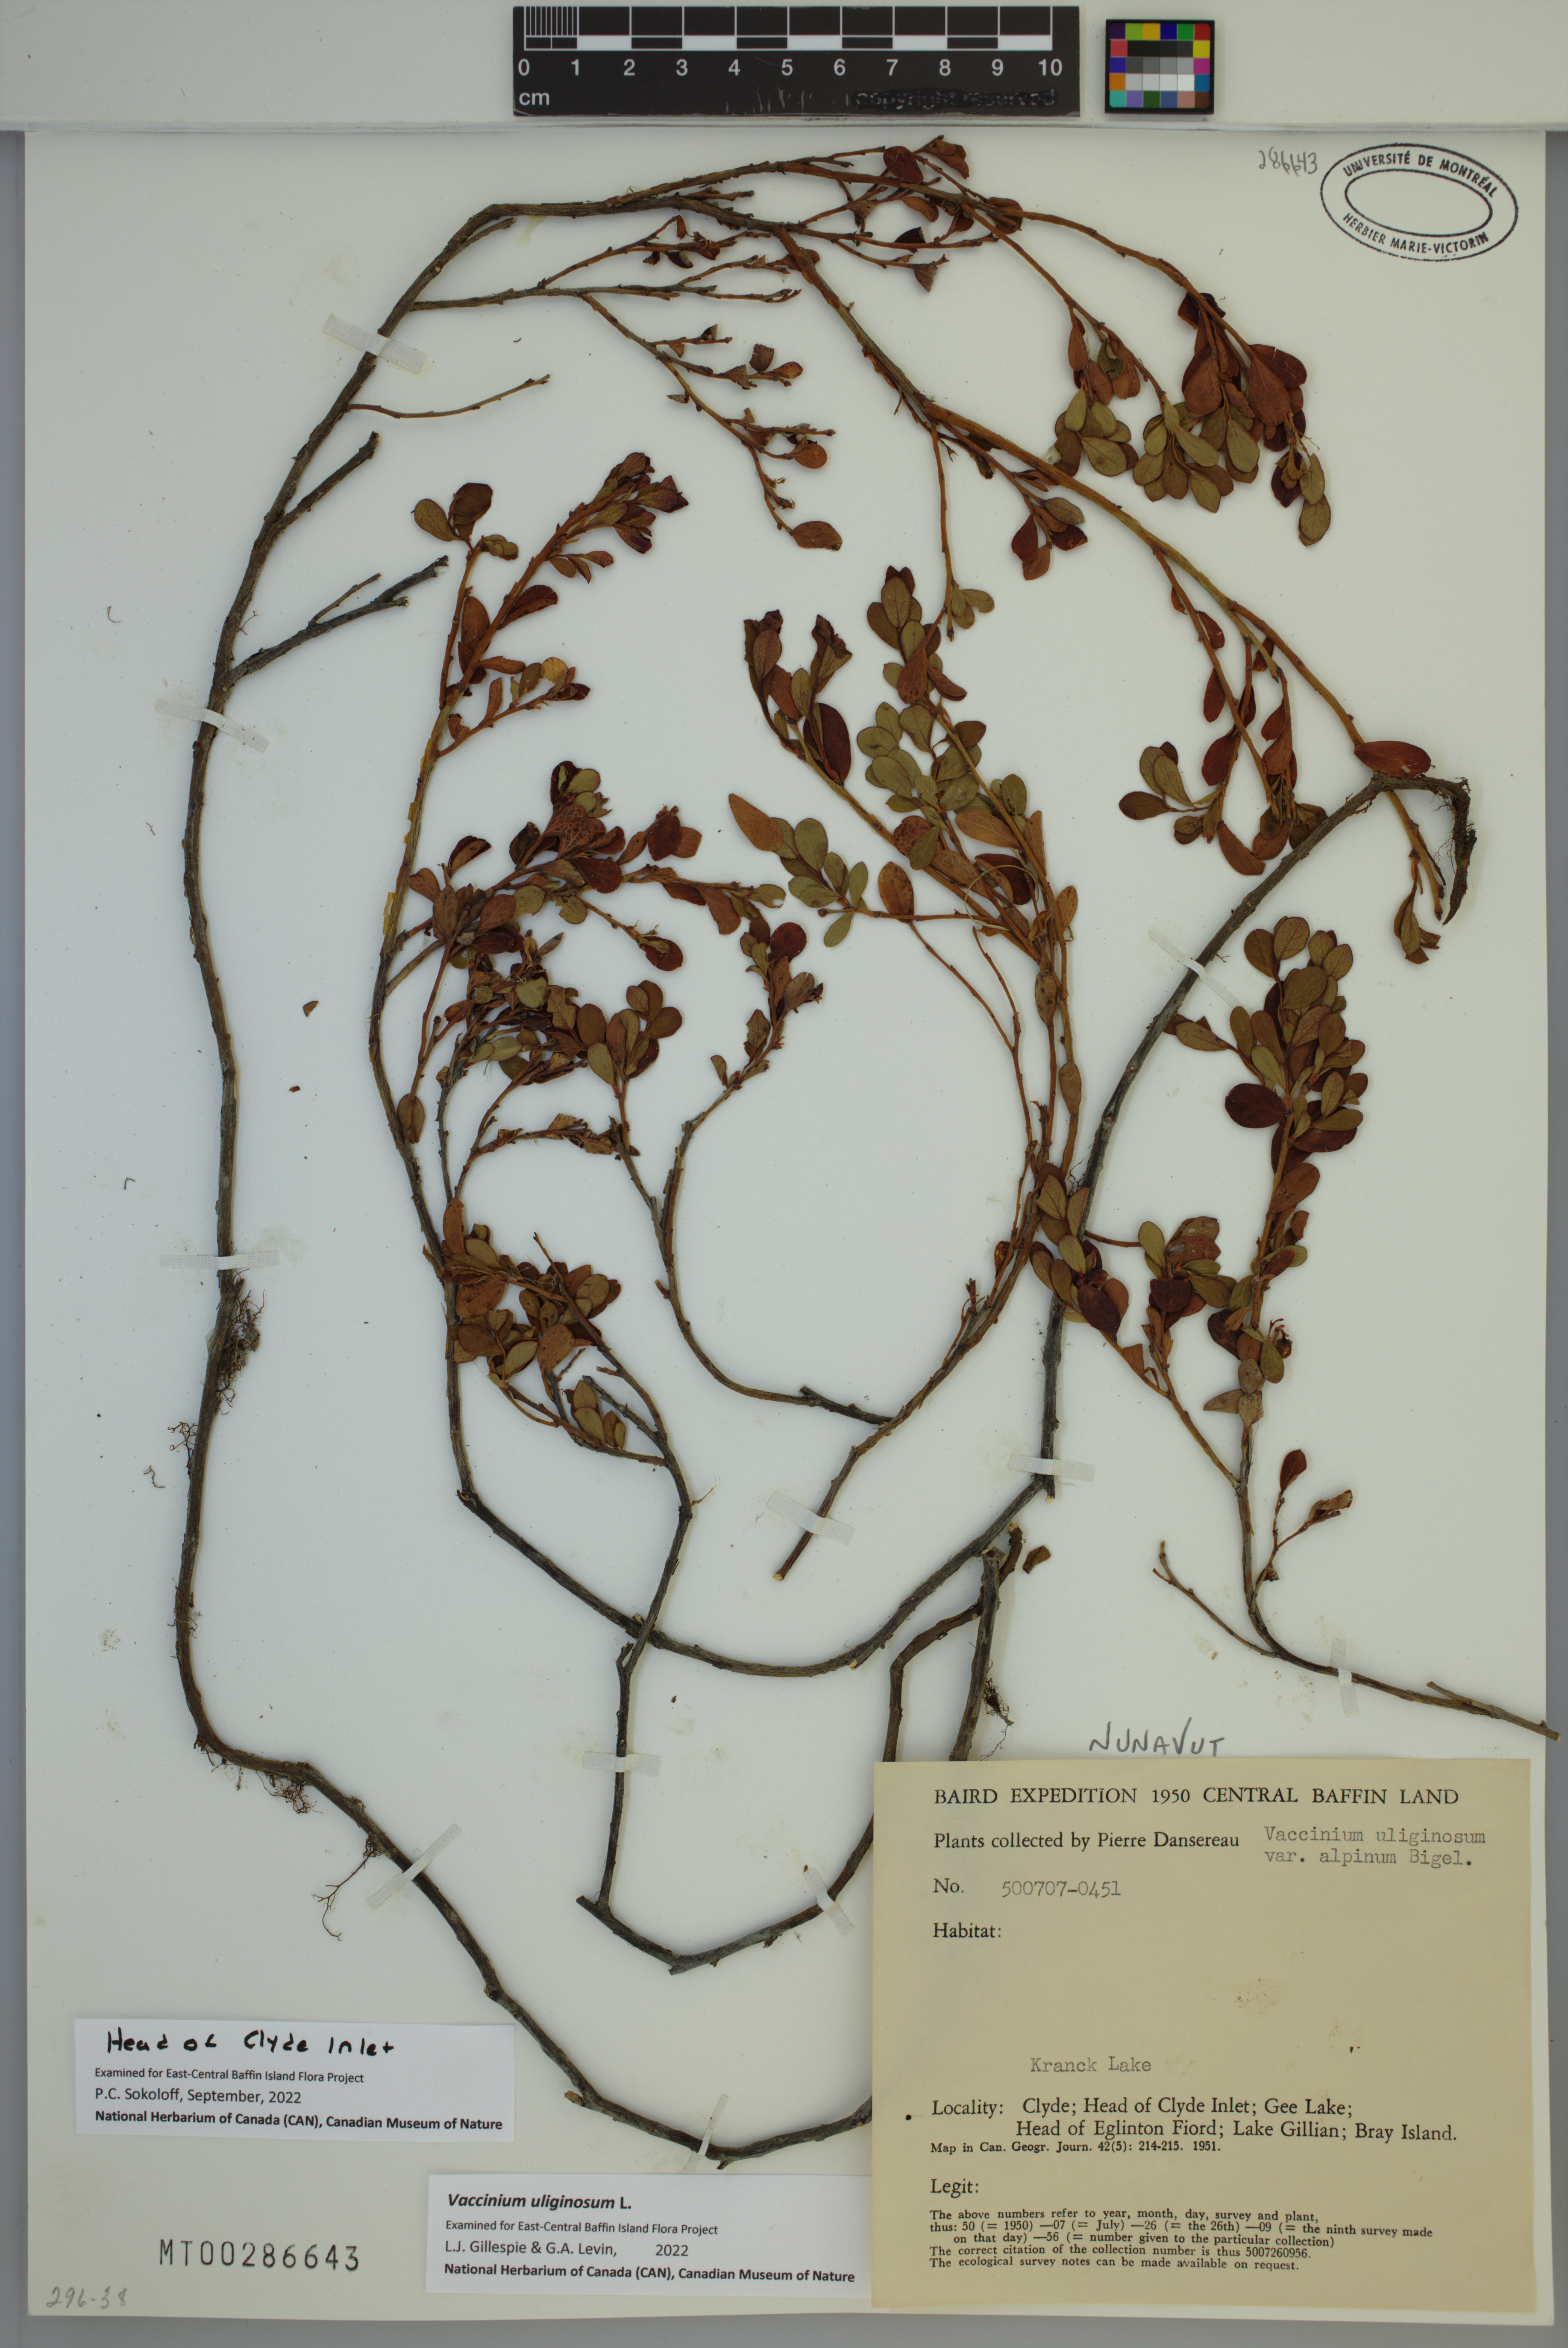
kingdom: Plantae
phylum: Tracheophyta
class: Magnoliopsida
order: Ericales
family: Ericaceae
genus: Vaccinium
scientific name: Vaccinium uliginosum
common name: Bog bilberry
